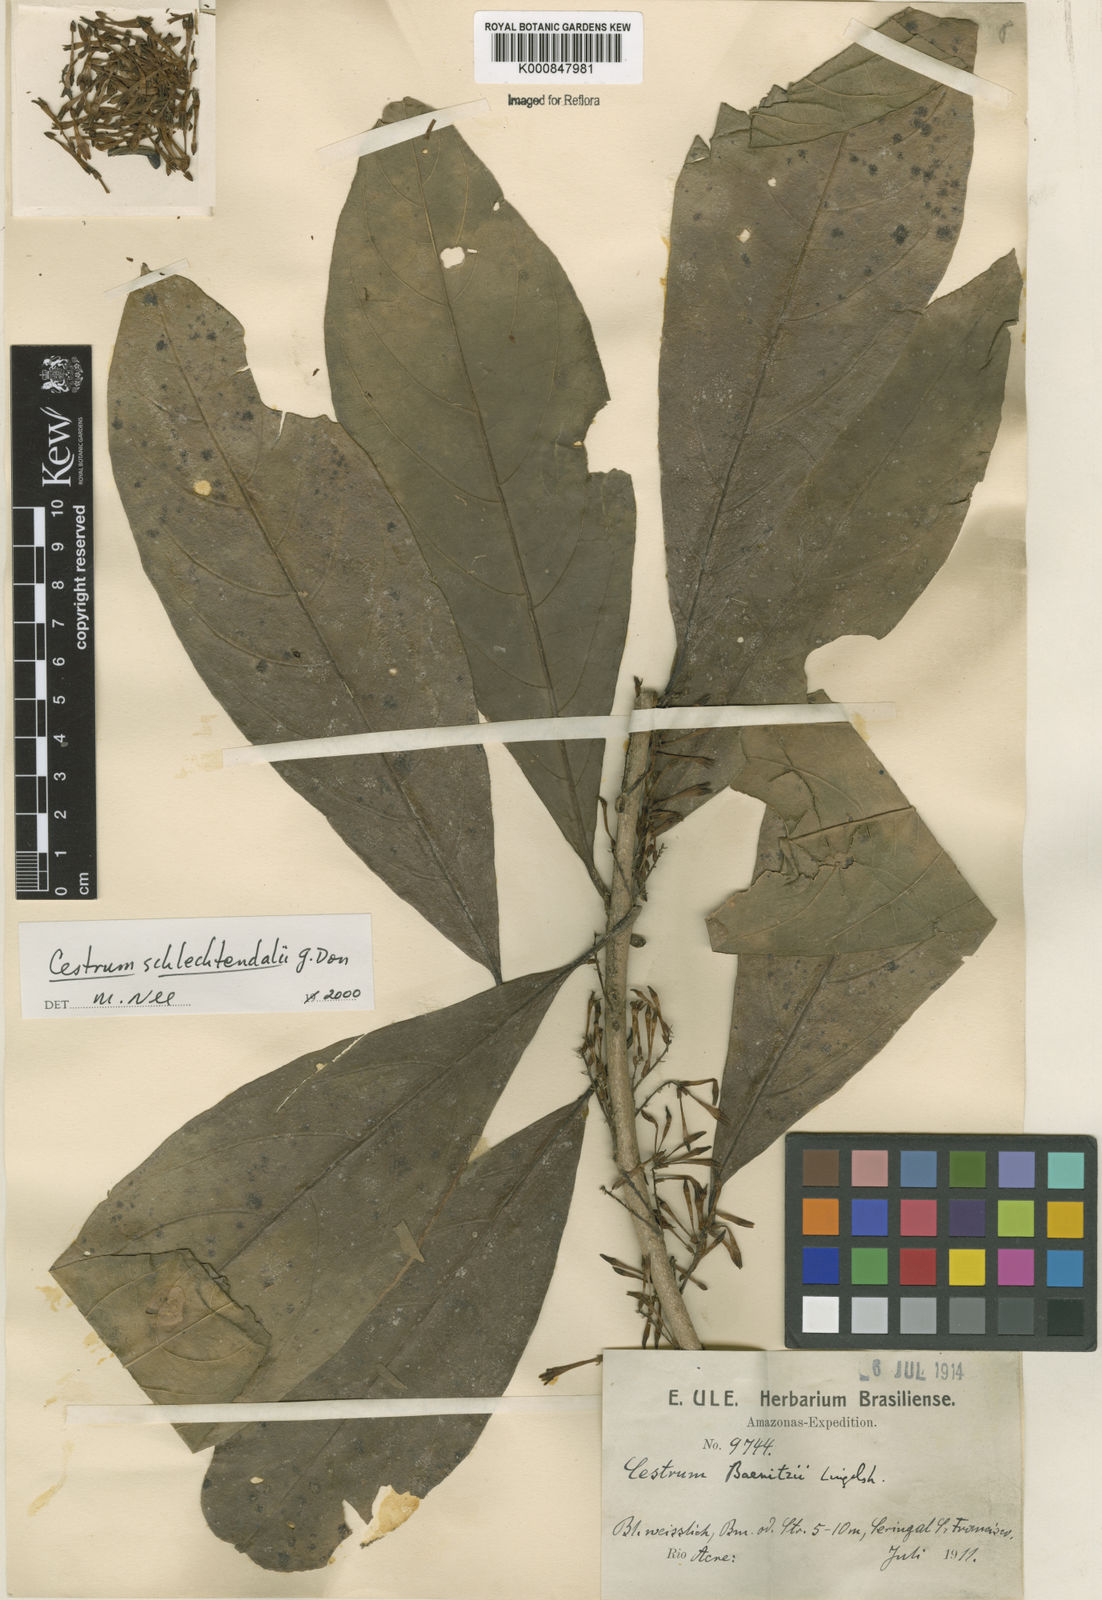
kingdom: Plantae
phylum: Tracheophyta
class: Magnoliopsida
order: Solanales
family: Solanaceae
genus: Cestrum
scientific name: Cestrum schlechtendalii
